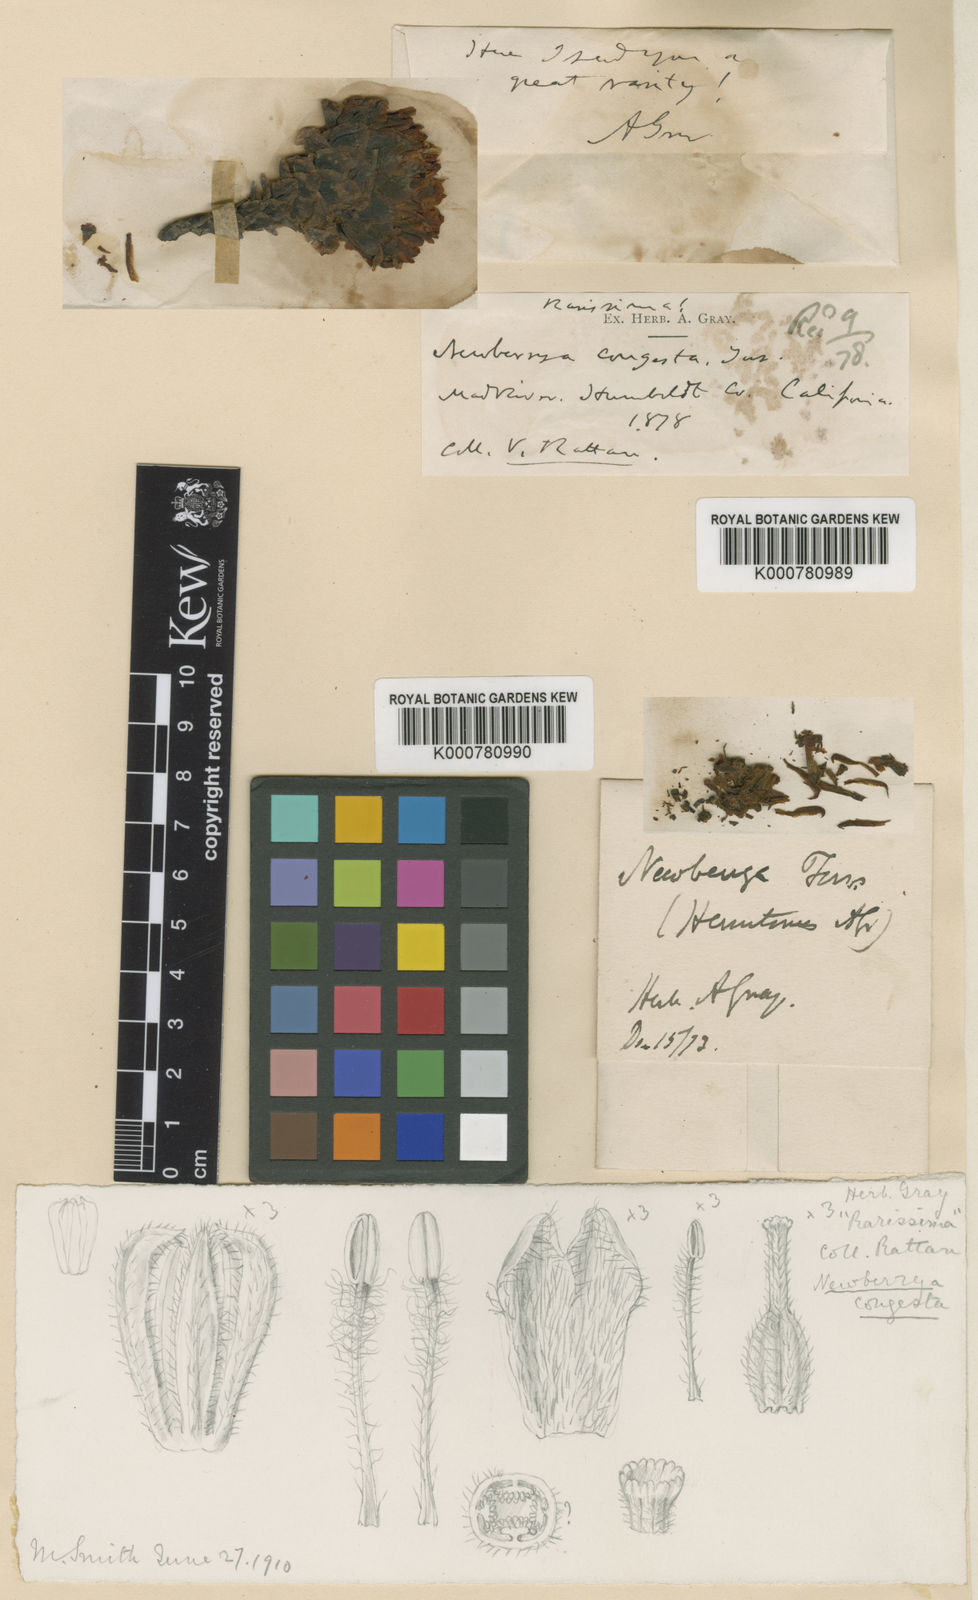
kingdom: Plantae
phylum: Tracheophyta
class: Magnoliopsida
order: Ericales
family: Ericaceae
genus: Hemitomes
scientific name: Hemitomes congestum
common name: Cone plant
